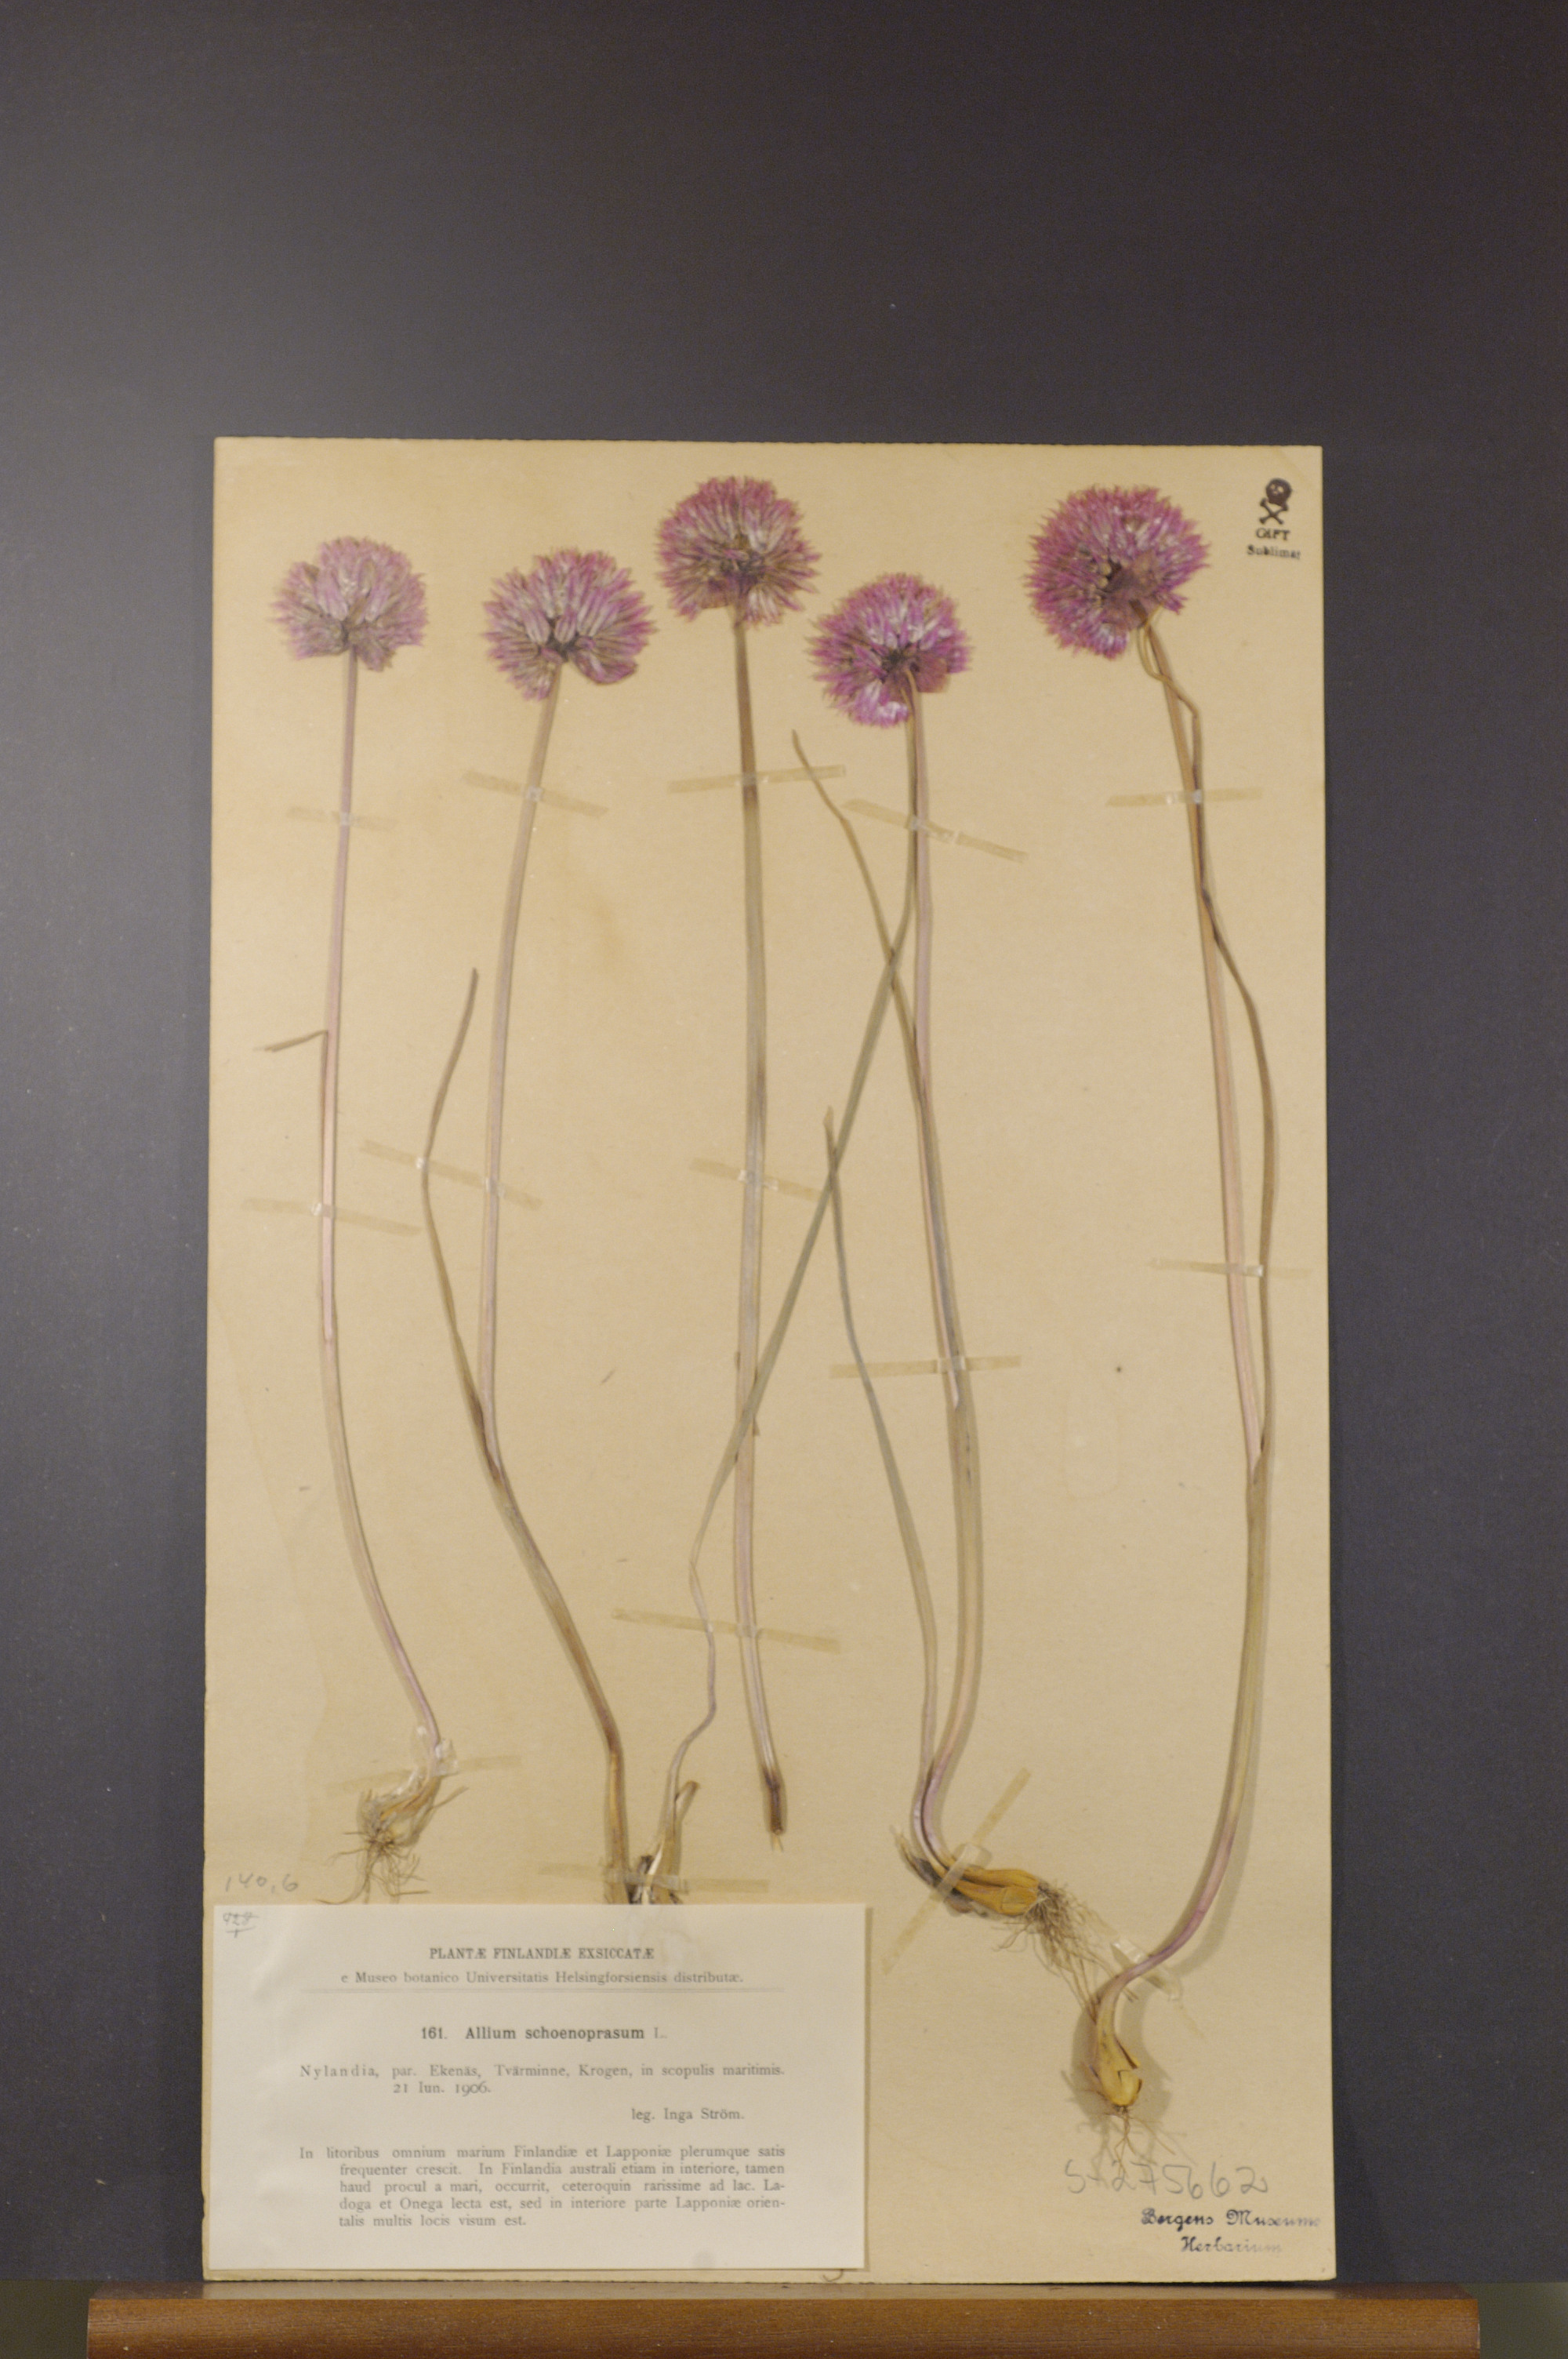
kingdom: Plantae
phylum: Tracheophyta
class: Liliopsida
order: Asparagales
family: Amaryllidaceae
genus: Allium
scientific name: Allium schoenoprasum
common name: Chives
